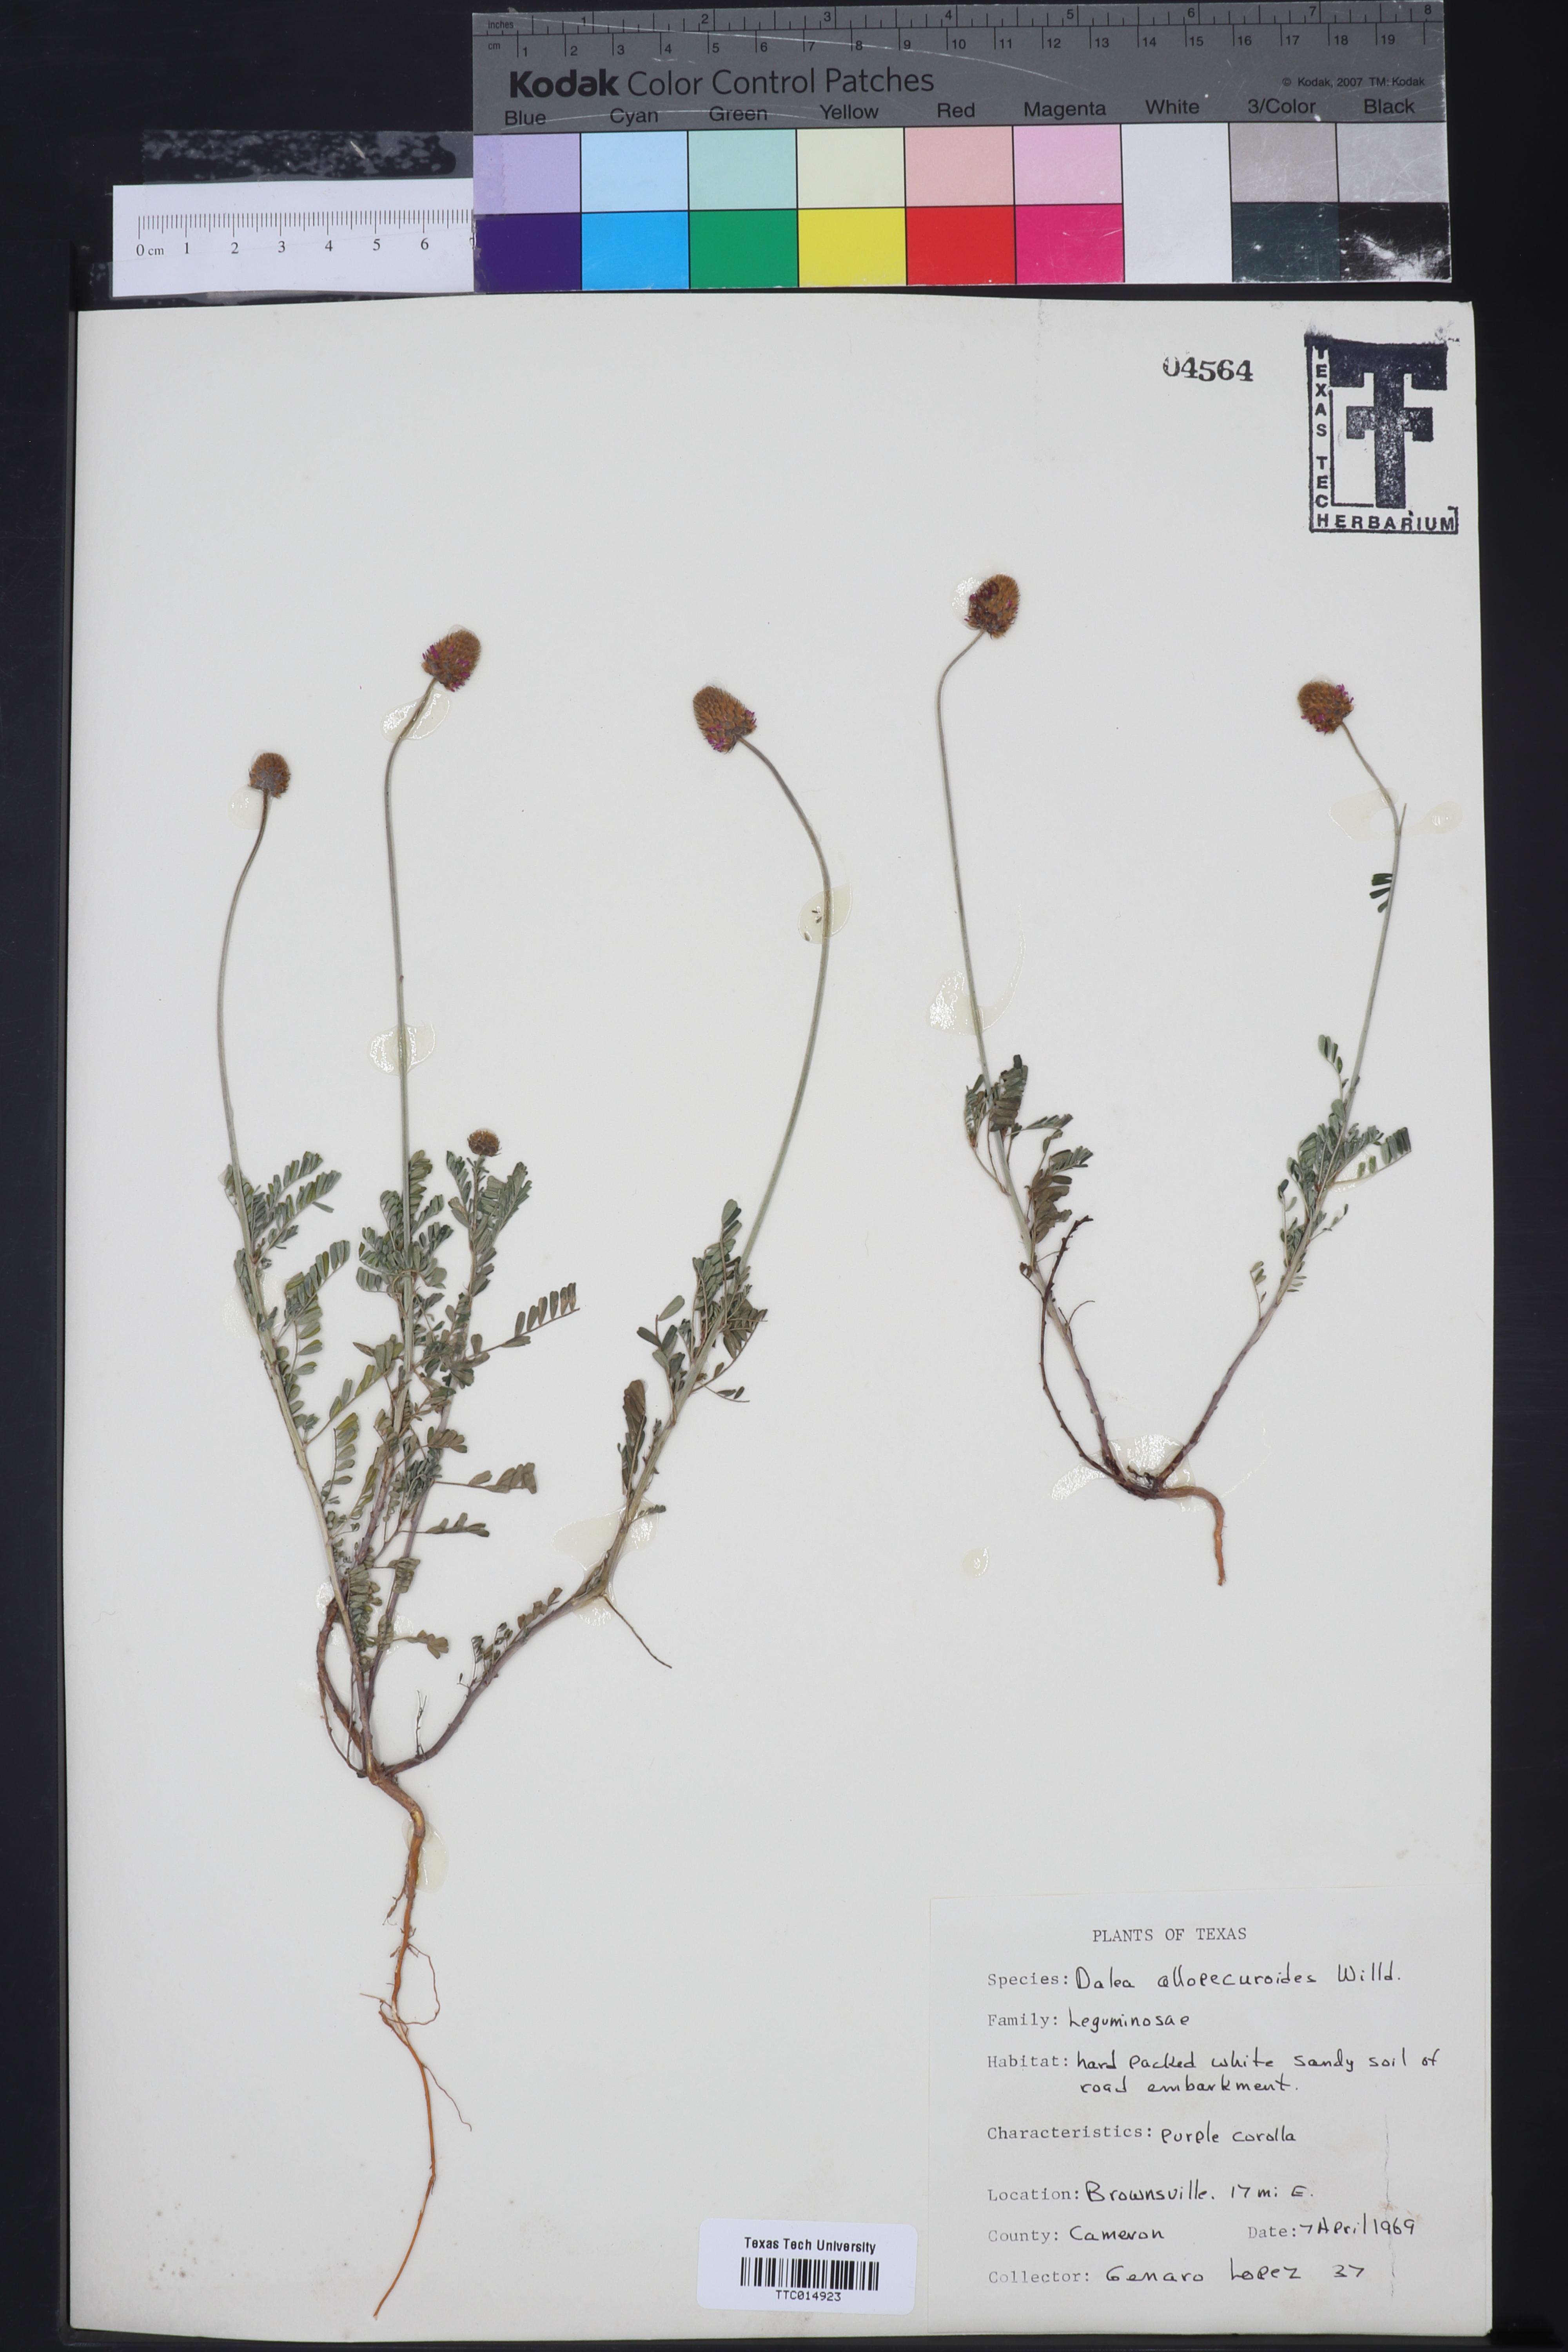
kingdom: Plantae
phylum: Tracheophyta
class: Magnoliopsida
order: Fabales
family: Fabaceae
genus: Dalea
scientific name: Dalea leporina
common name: Foxtail dalea
